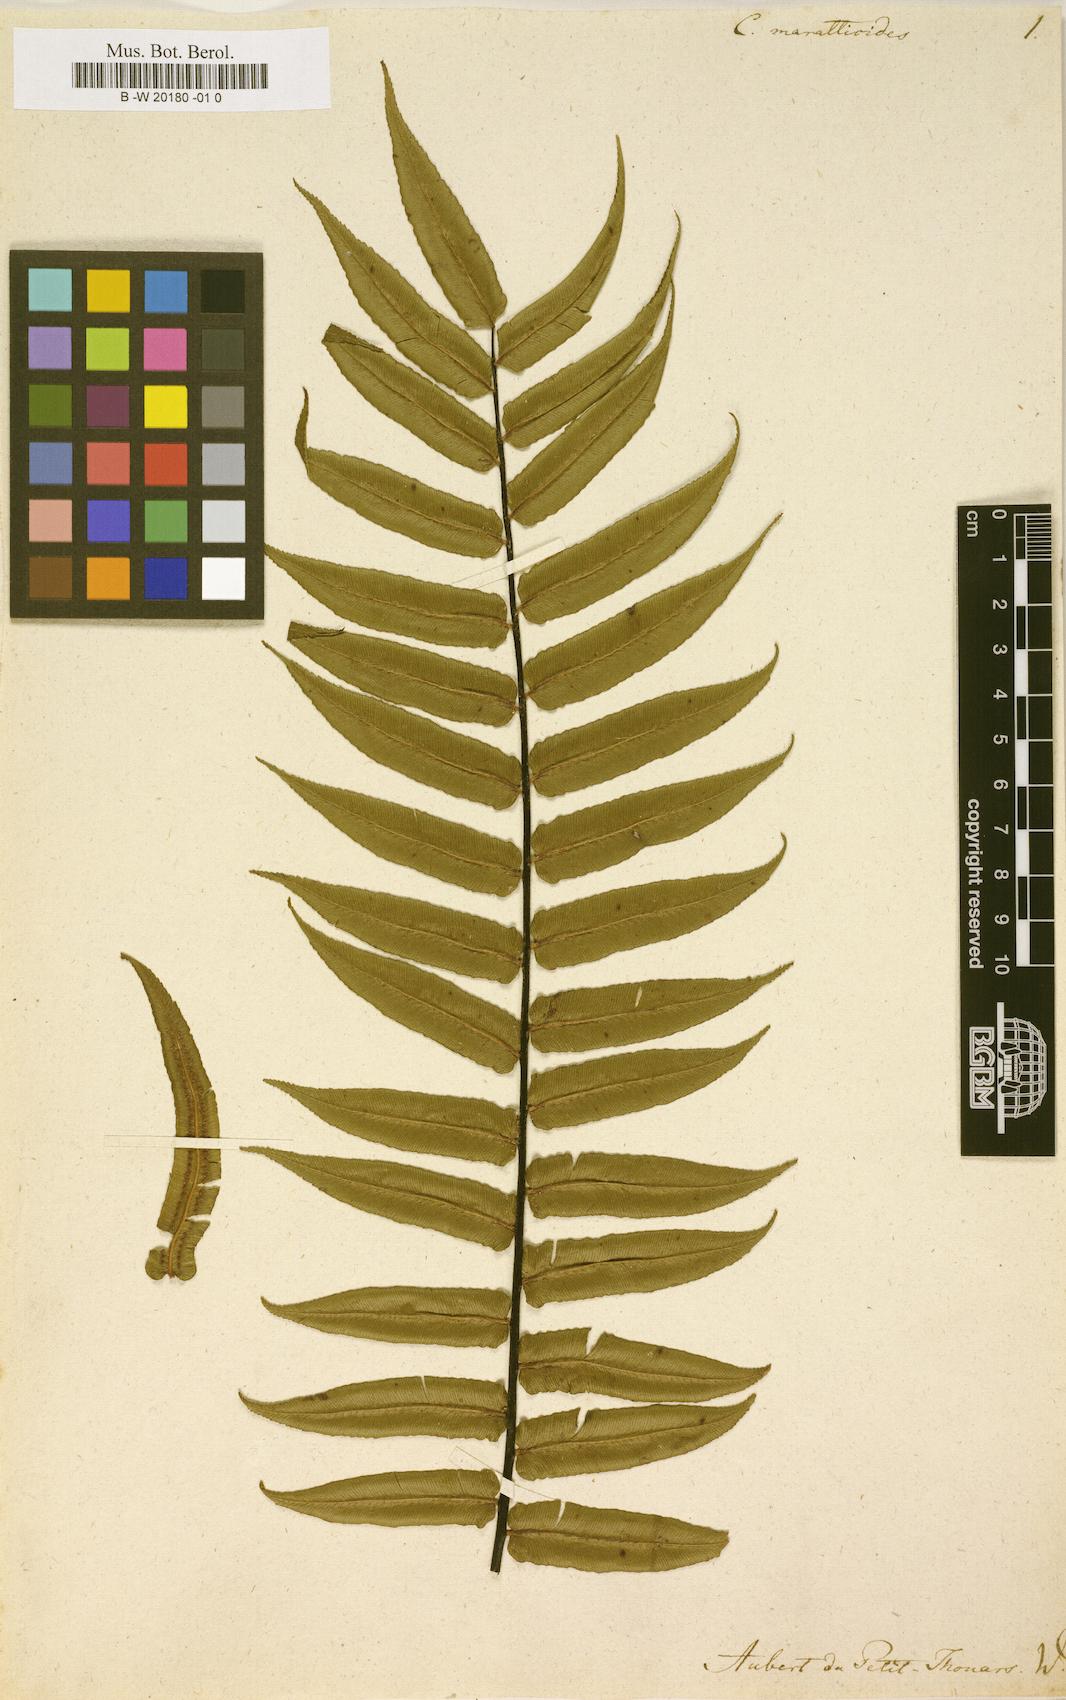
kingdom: Plantae
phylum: Tracheophyta
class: Polypodiopsida
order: Cyatheales
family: Cyatheaceae
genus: Cyathea
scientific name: Cyathea marattioides
